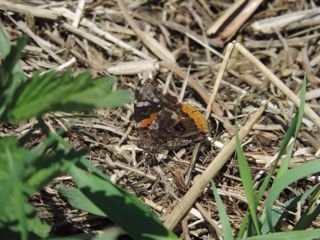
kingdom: Animalia
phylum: Arthropoda
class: Insecta
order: Lepidoptera
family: Nymphalidae
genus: Vanessa
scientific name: Vanessa atalanta
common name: Red Admiral
